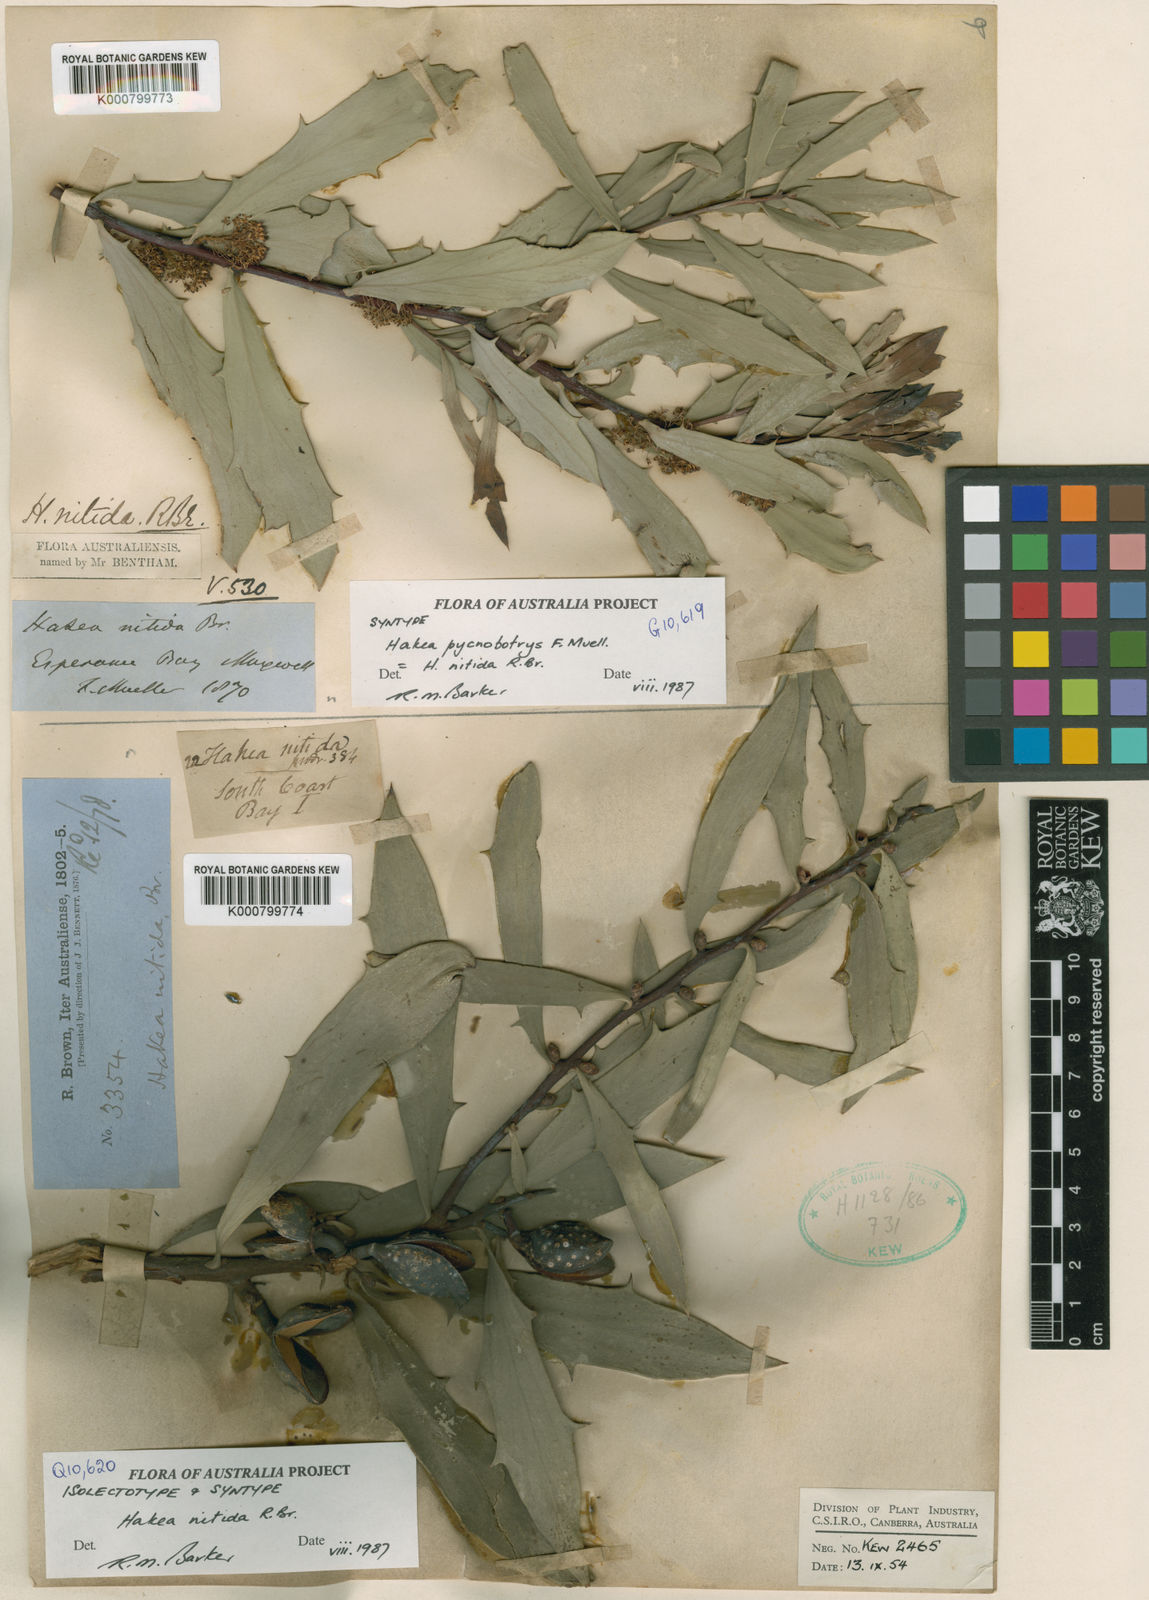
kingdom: Plantae
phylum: Tracheophyta
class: Magnoliopsida
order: Proteales
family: Proteaceae
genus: Hakea
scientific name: Hakea nitida
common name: Frog hakea
